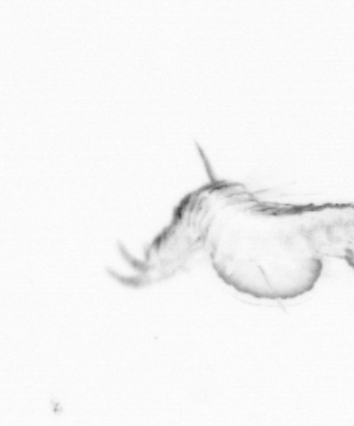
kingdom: Animalia
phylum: Annelida
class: Polychaeta
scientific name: Polychaeta
